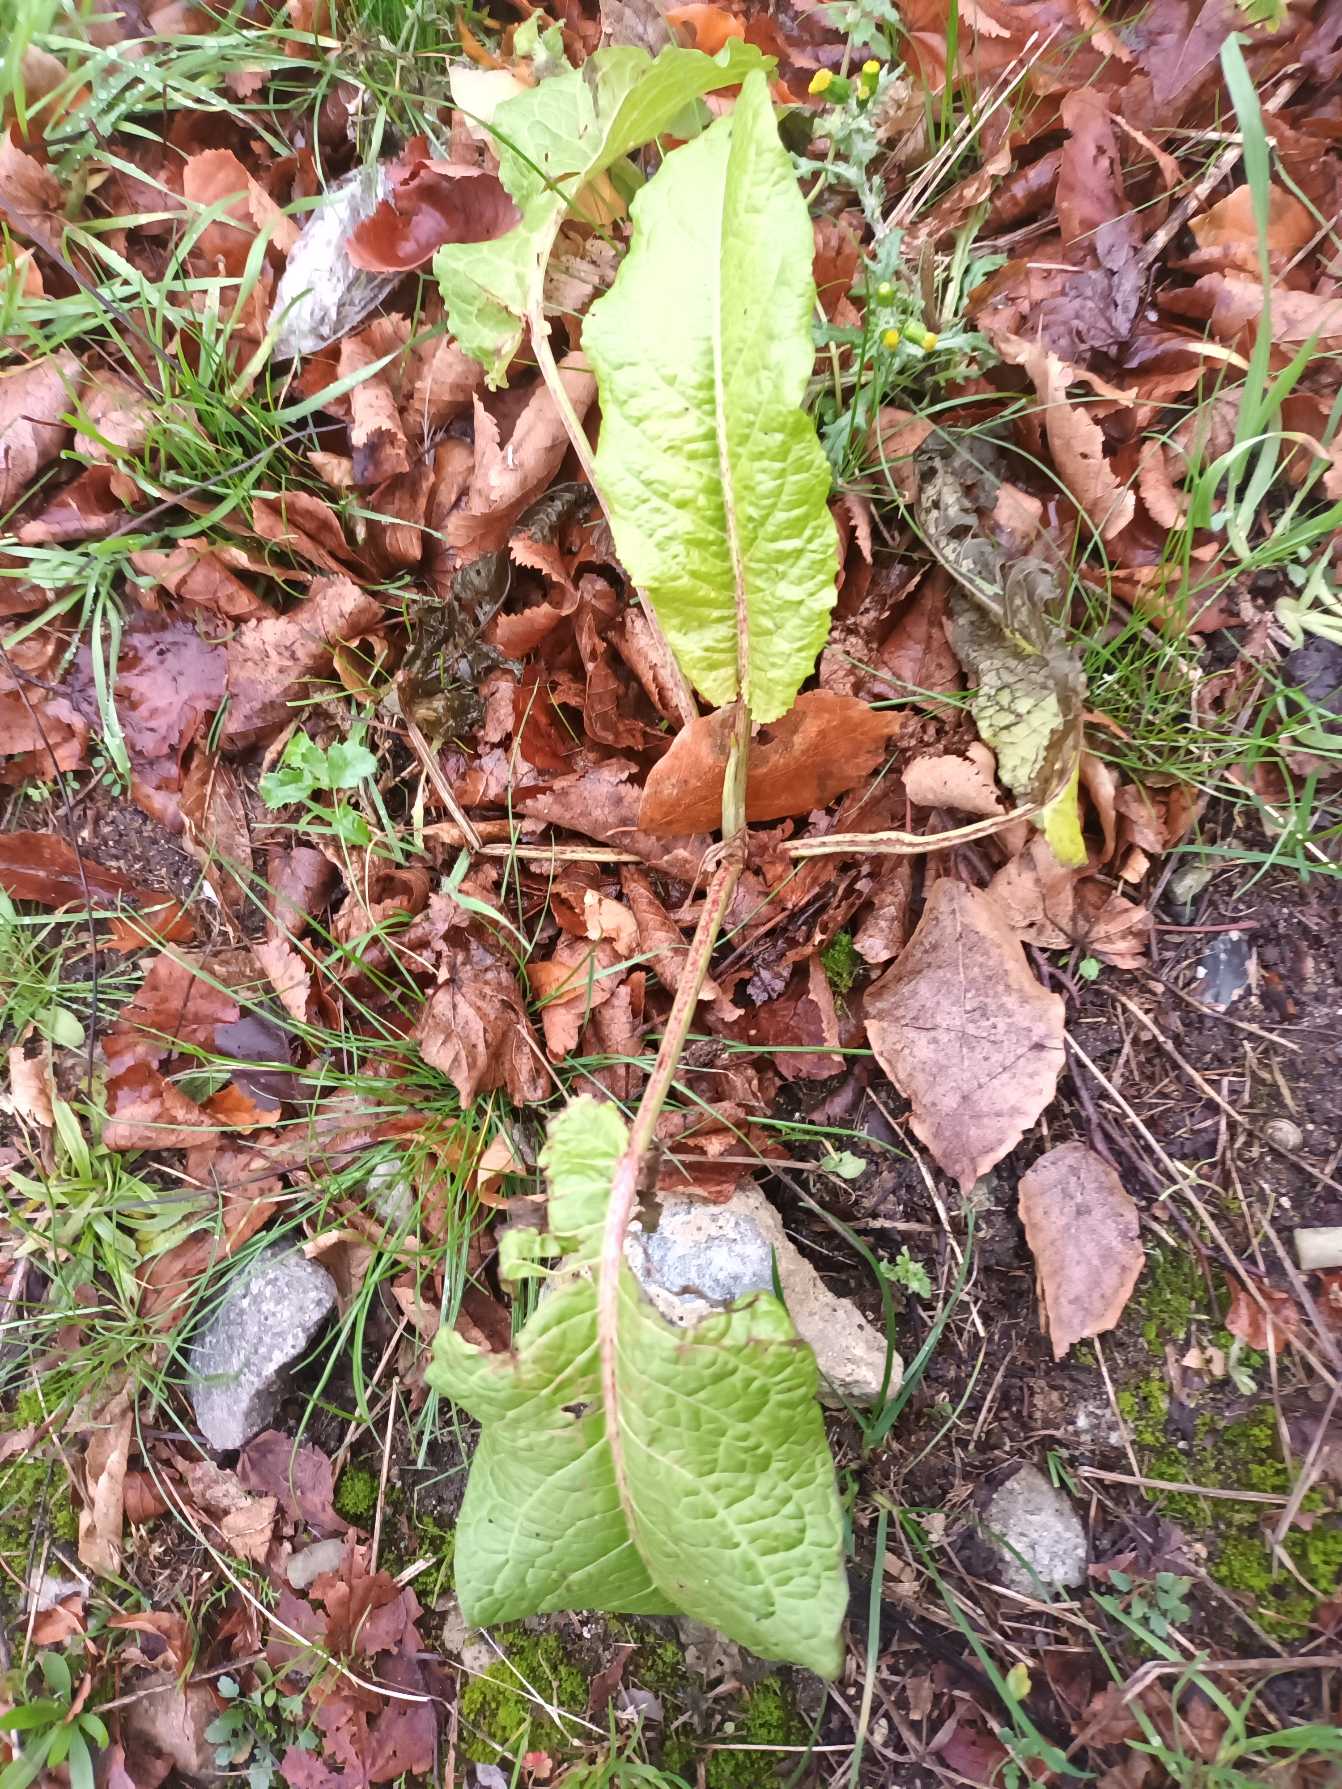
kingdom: Plantae
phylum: Tracheophyta
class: Magnoliopsida
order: Caryophyllales
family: Polygonaceae
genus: Rumex
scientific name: Rumex obtusifolius
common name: Butbladet skræppe
